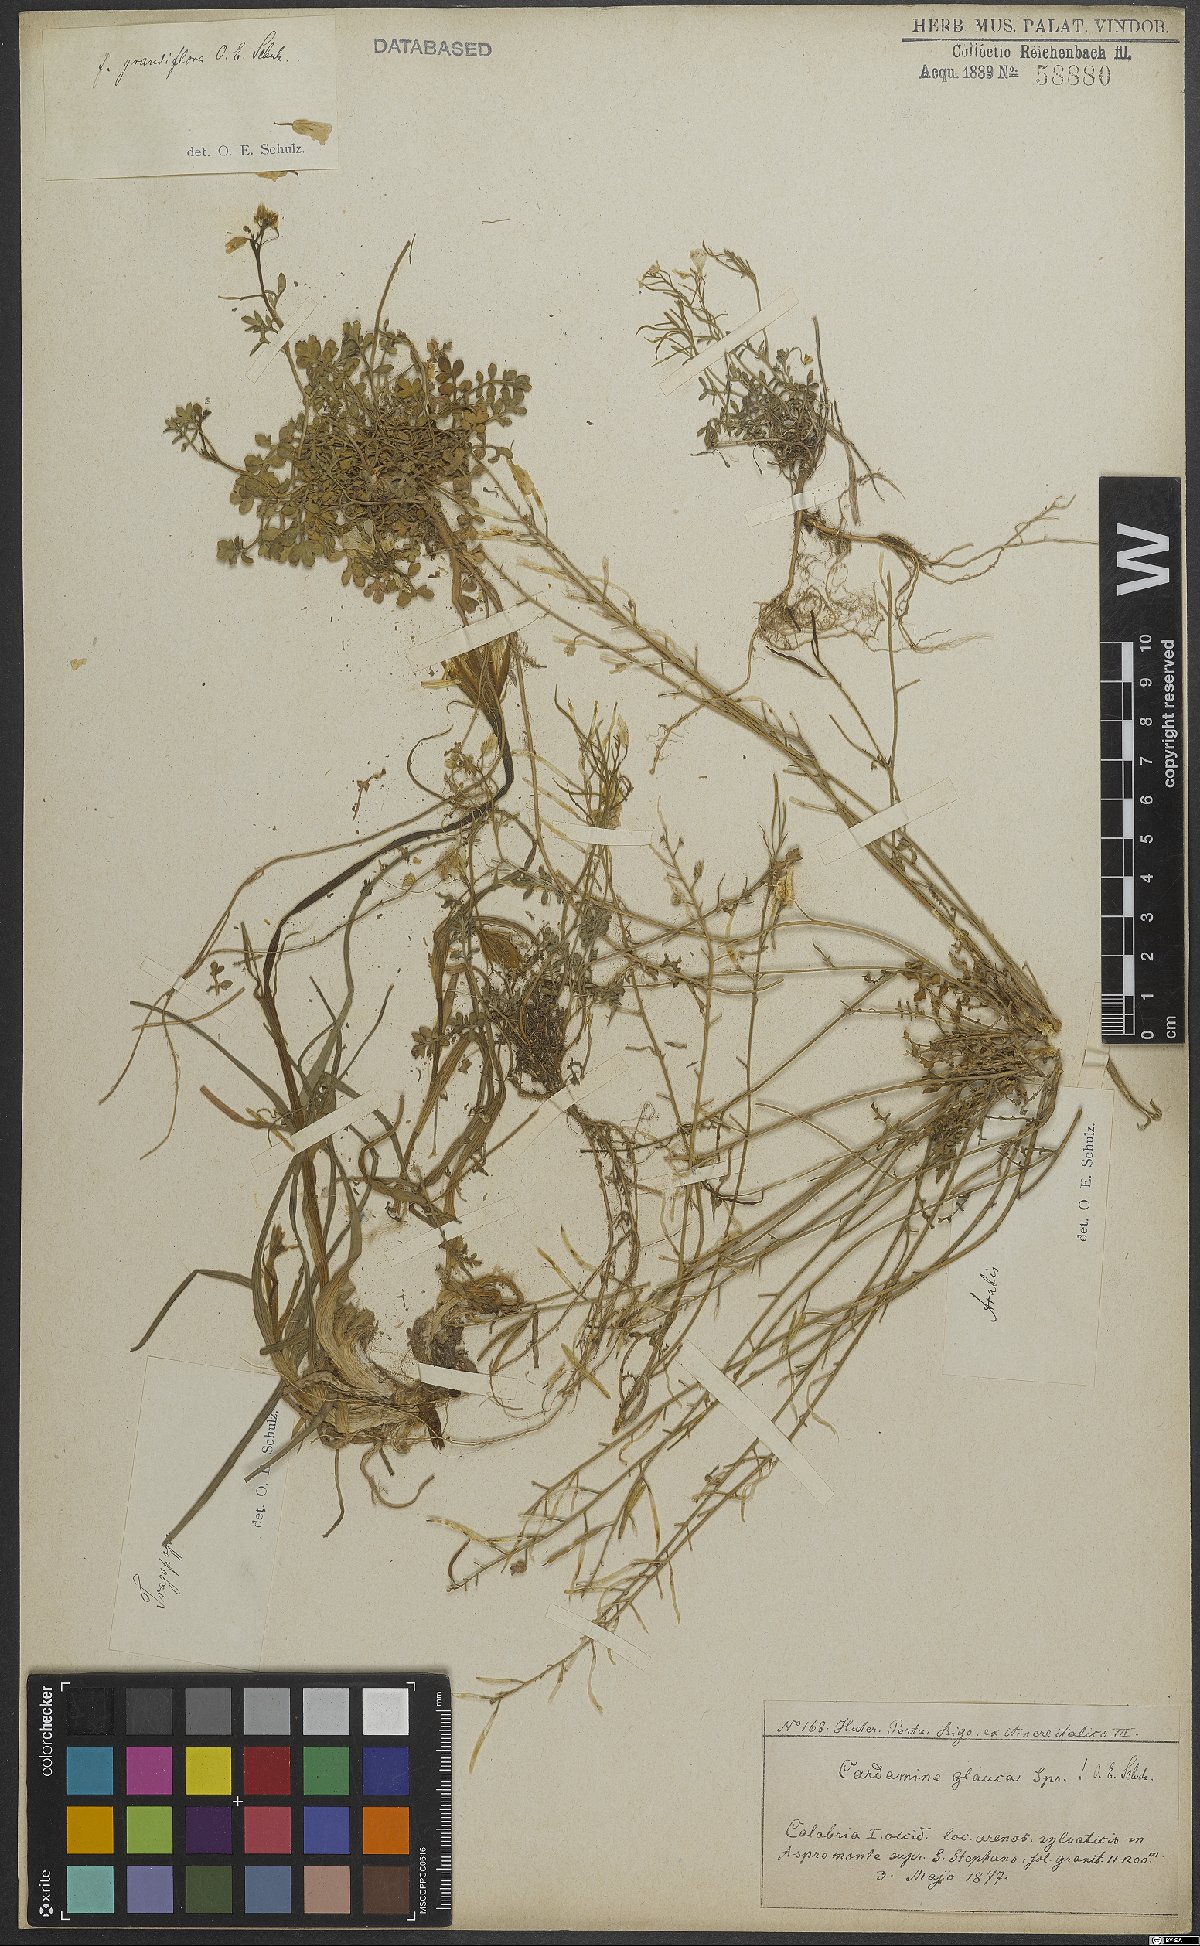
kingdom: Plantae
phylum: Tracheophyta
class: Magnoliopsida
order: Brassicales
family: Brassicaceae
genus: Cardamine
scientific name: Cardamine glauca
